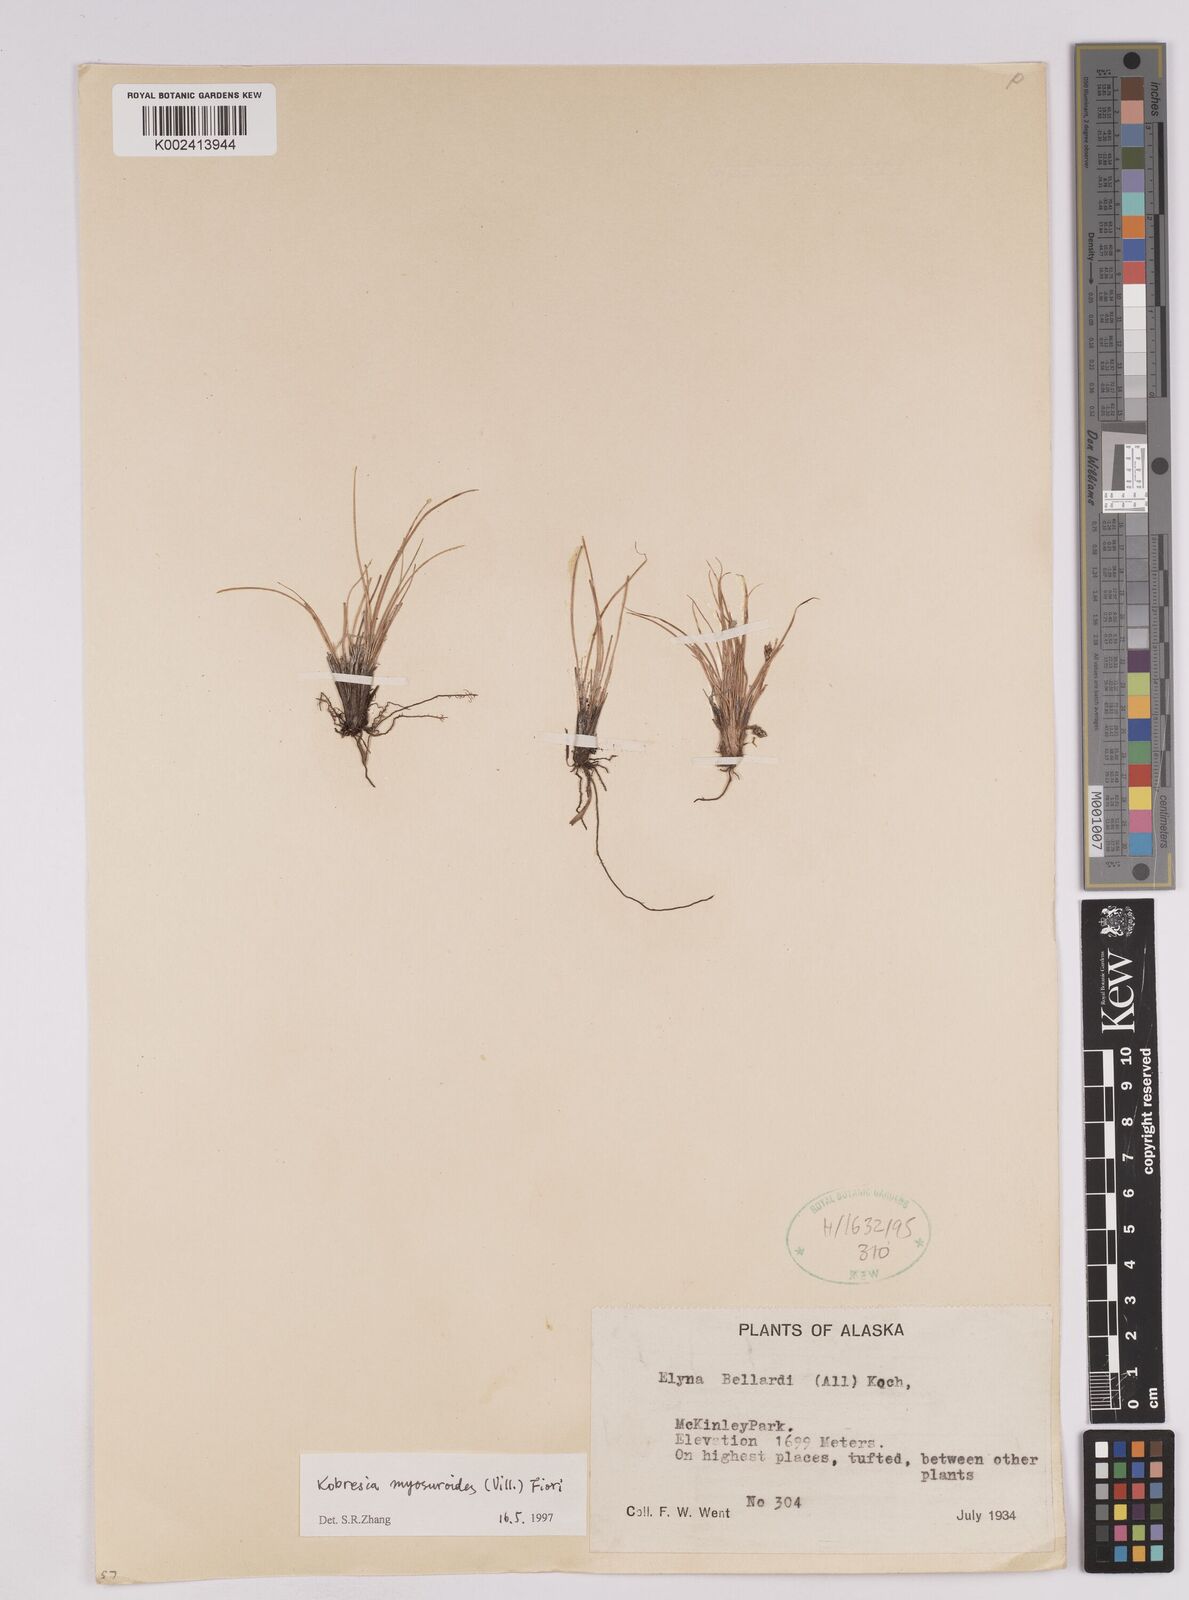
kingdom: Plantae
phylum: Tracheophyta
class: Liliopsida
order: Poales
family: Cyperaceae
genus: Carex
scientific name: Carex myosuroides
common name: Bellard's bog sedge
